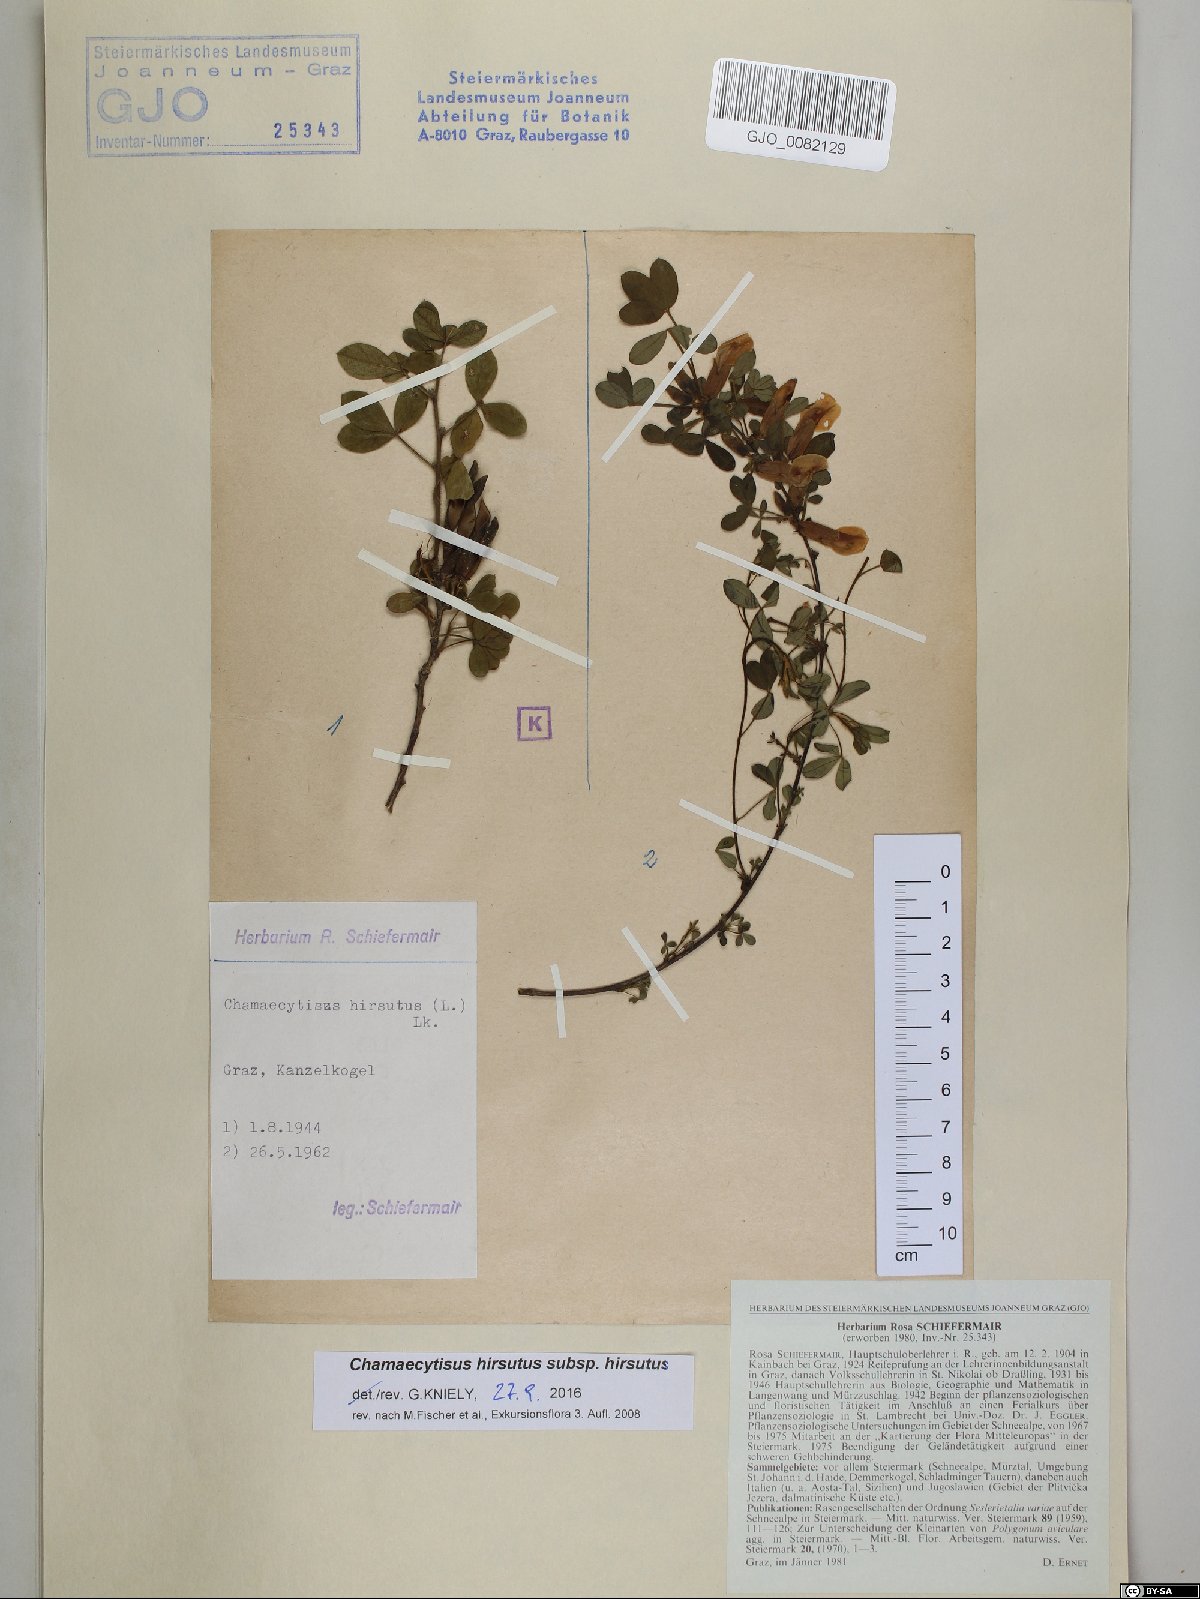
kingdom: Plantae
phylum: Tracheophyta
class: Magnoliopsida
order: Fabales
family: Fabaceae
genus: Chamaecytisus
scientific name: Chamaecytisus hirsutus
